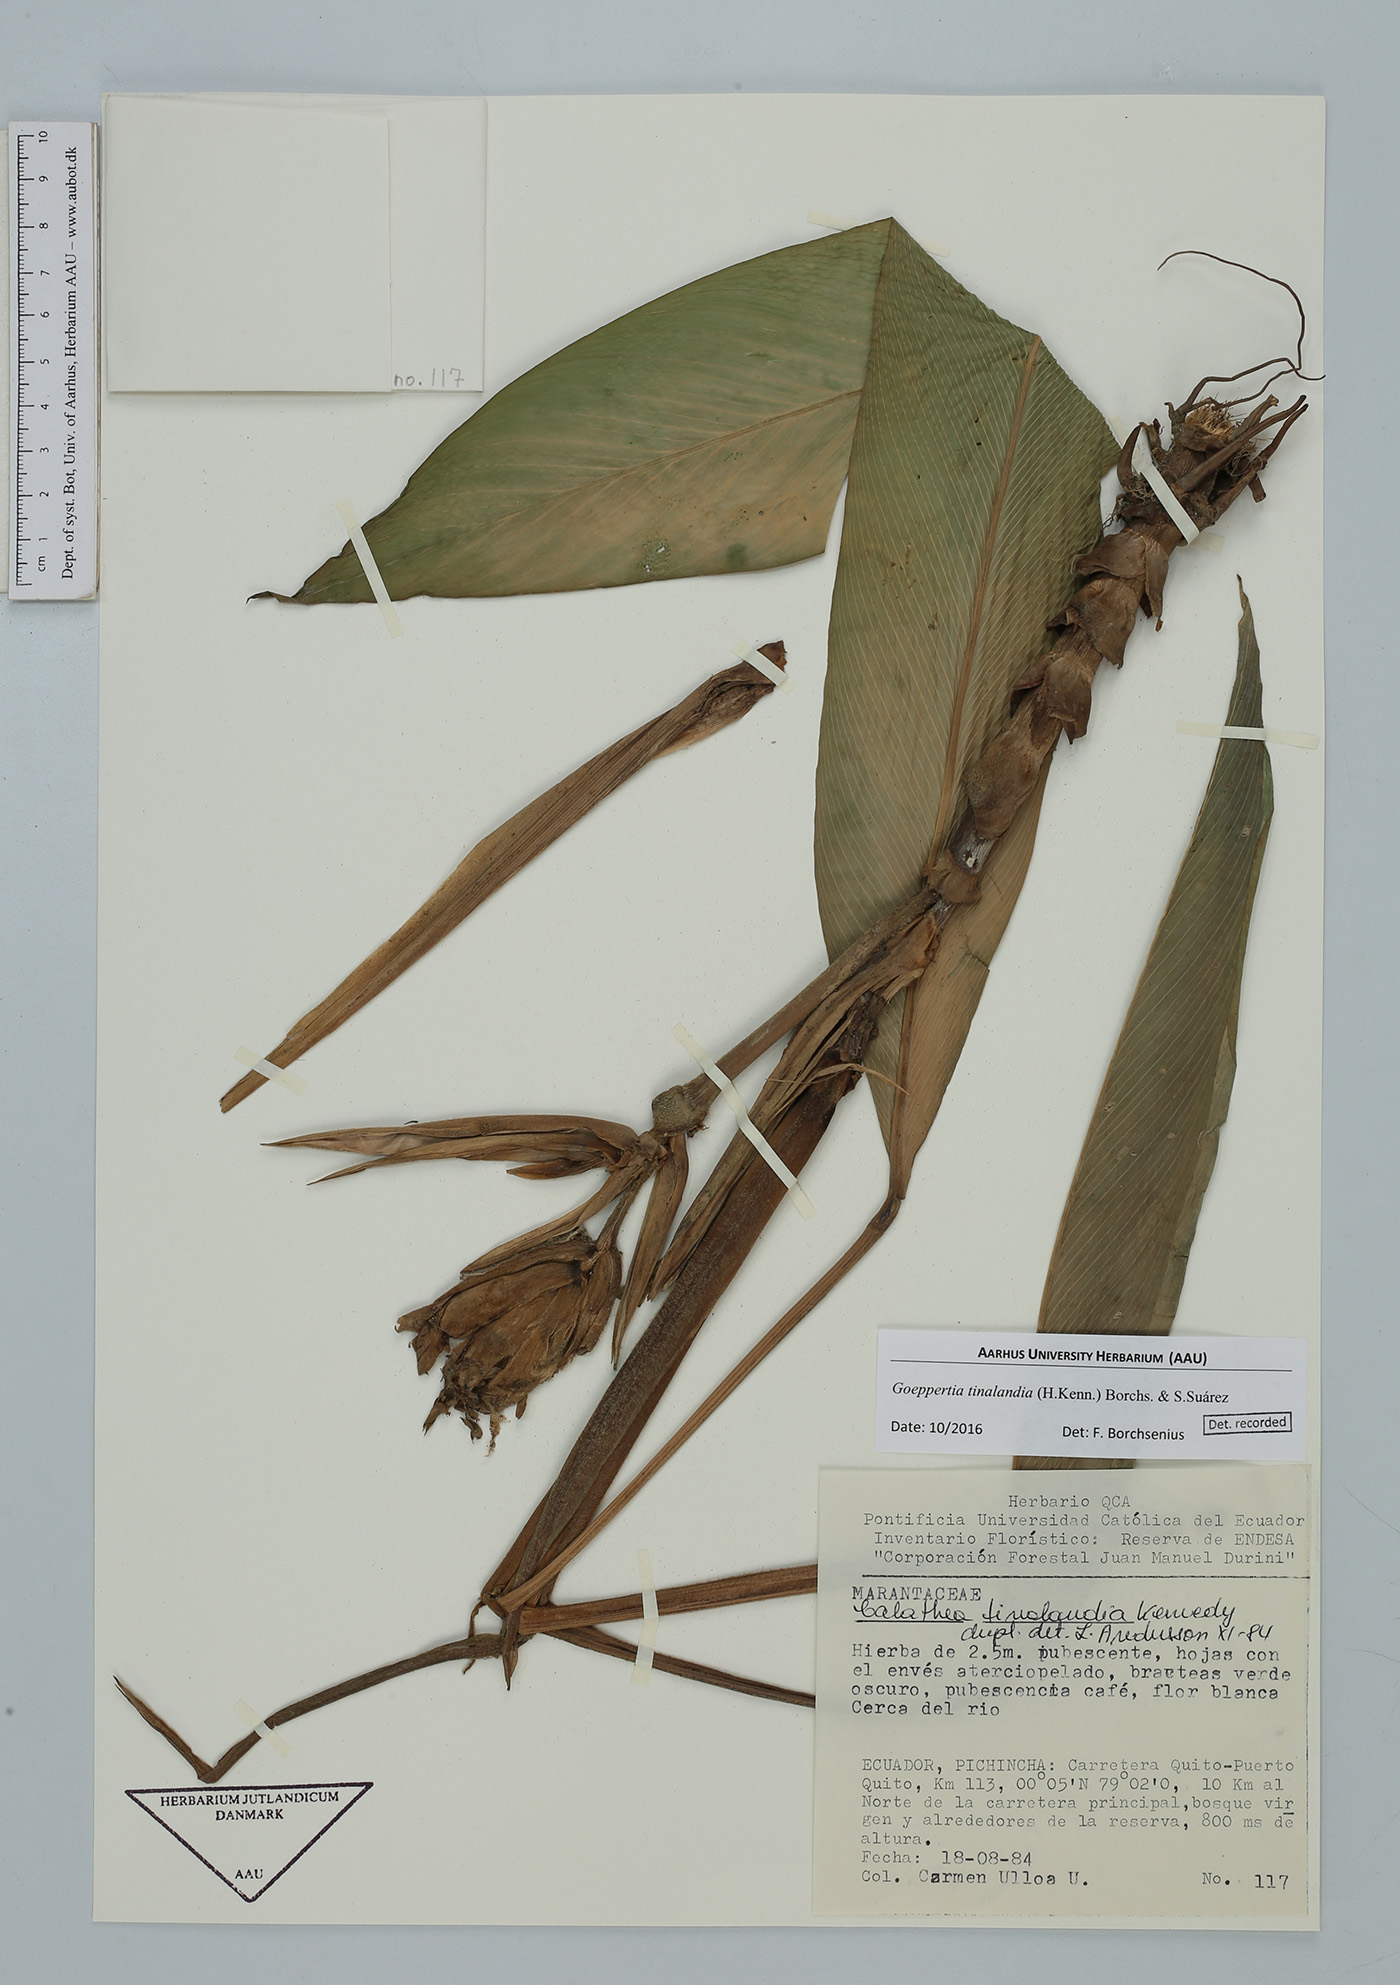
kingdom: Plantae
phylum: Tracheophyta
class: Liliopsida
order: Zingiberales
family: Marantaceae
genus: Goeppertia
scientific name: Goeppertia tinalandia
